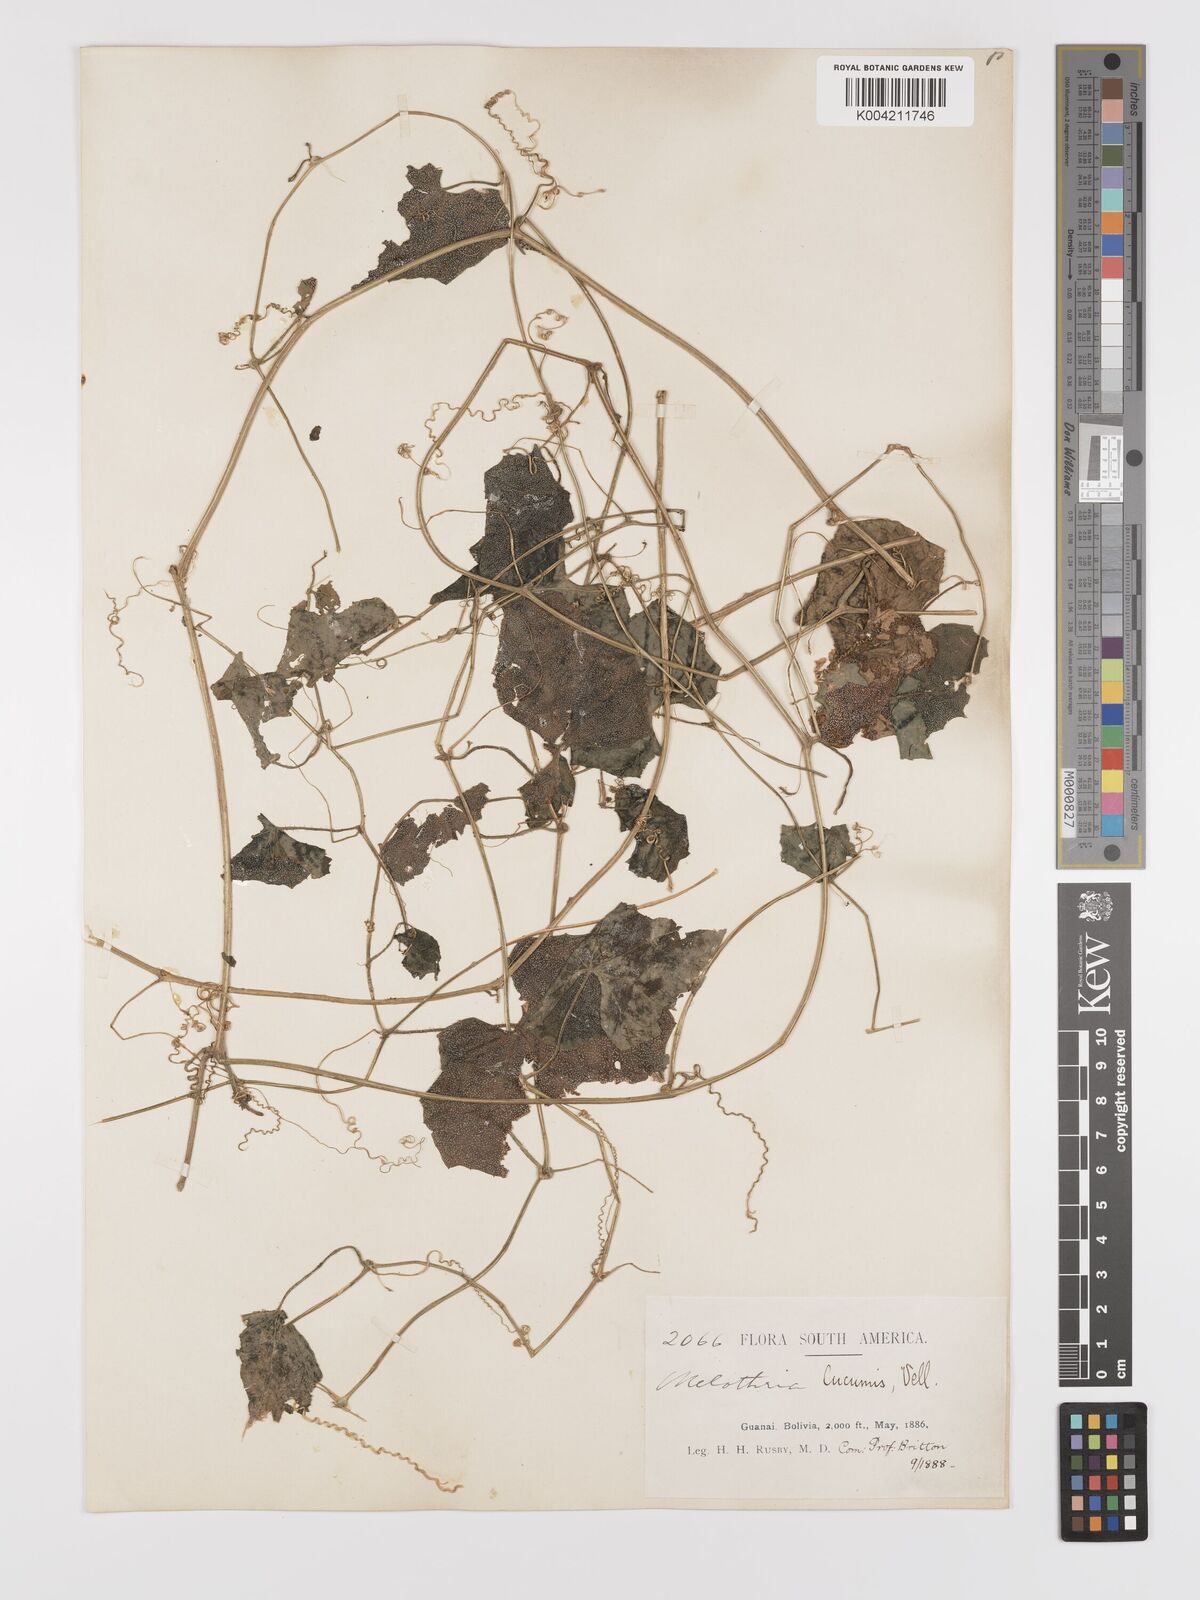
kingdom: Plantae
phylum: Tracheophyta
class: Magnoliopsida
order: Cucurbitales
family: Cucurbitaceae
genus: Melothria
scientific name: Melothria cucumis
